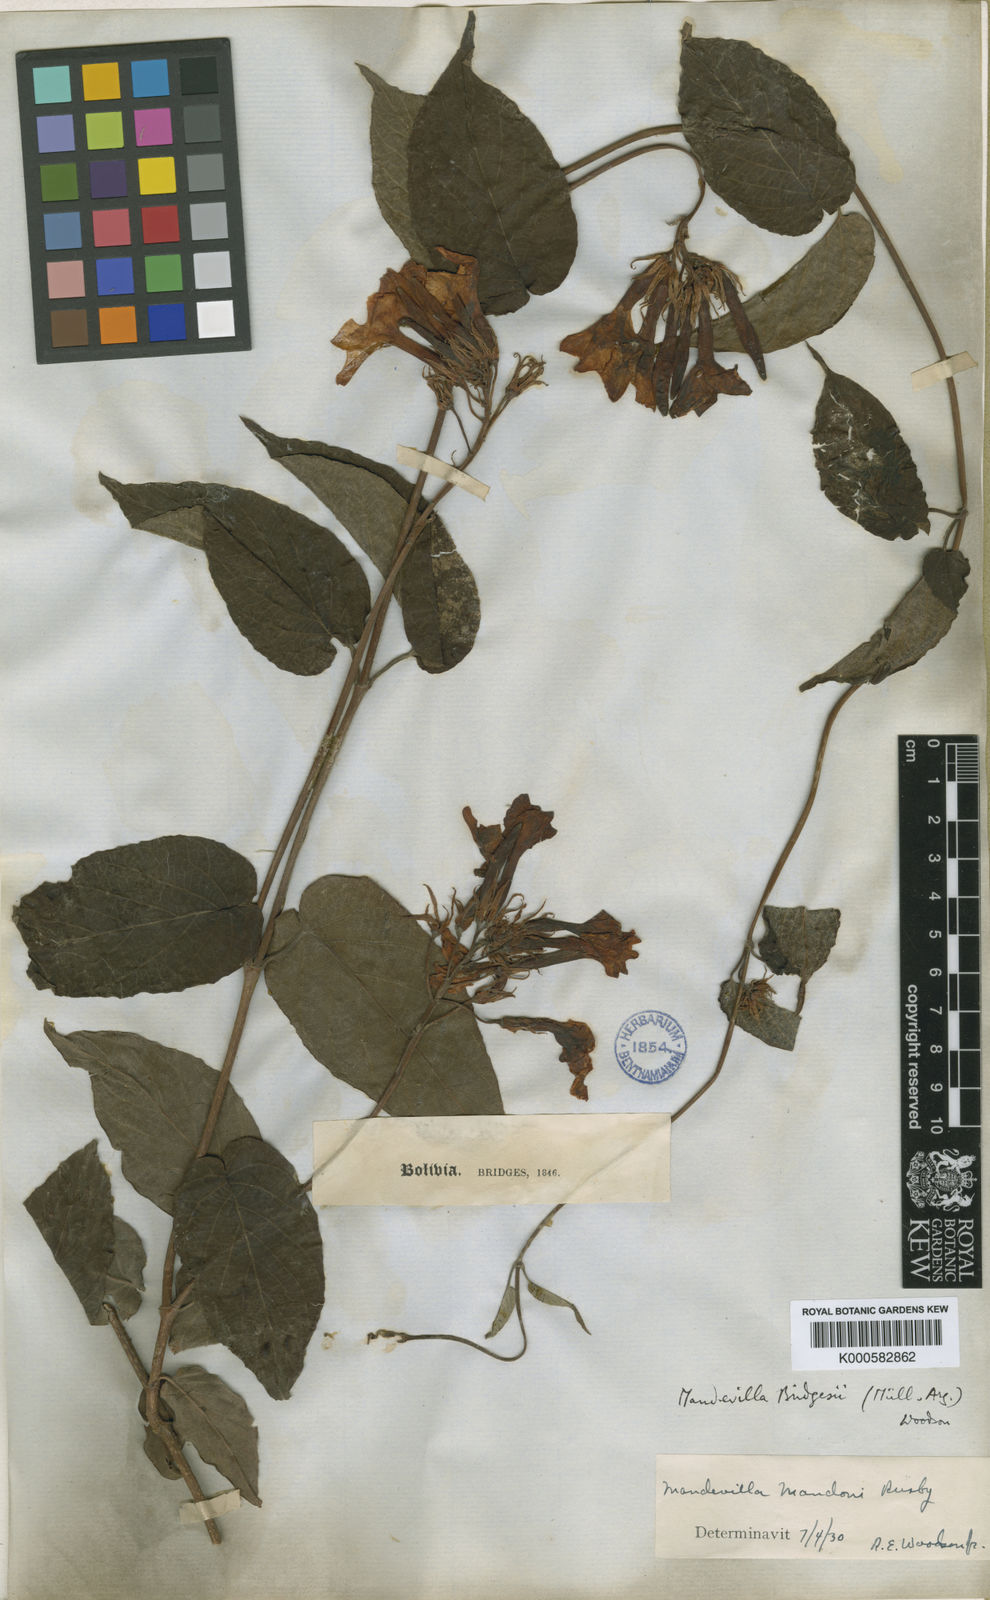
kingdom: Plantae
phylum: Tracheophyta
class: Magnoliopsida
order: Gentianales
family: Apocynaceae
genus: Mandevilla
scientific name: Mandevilla
